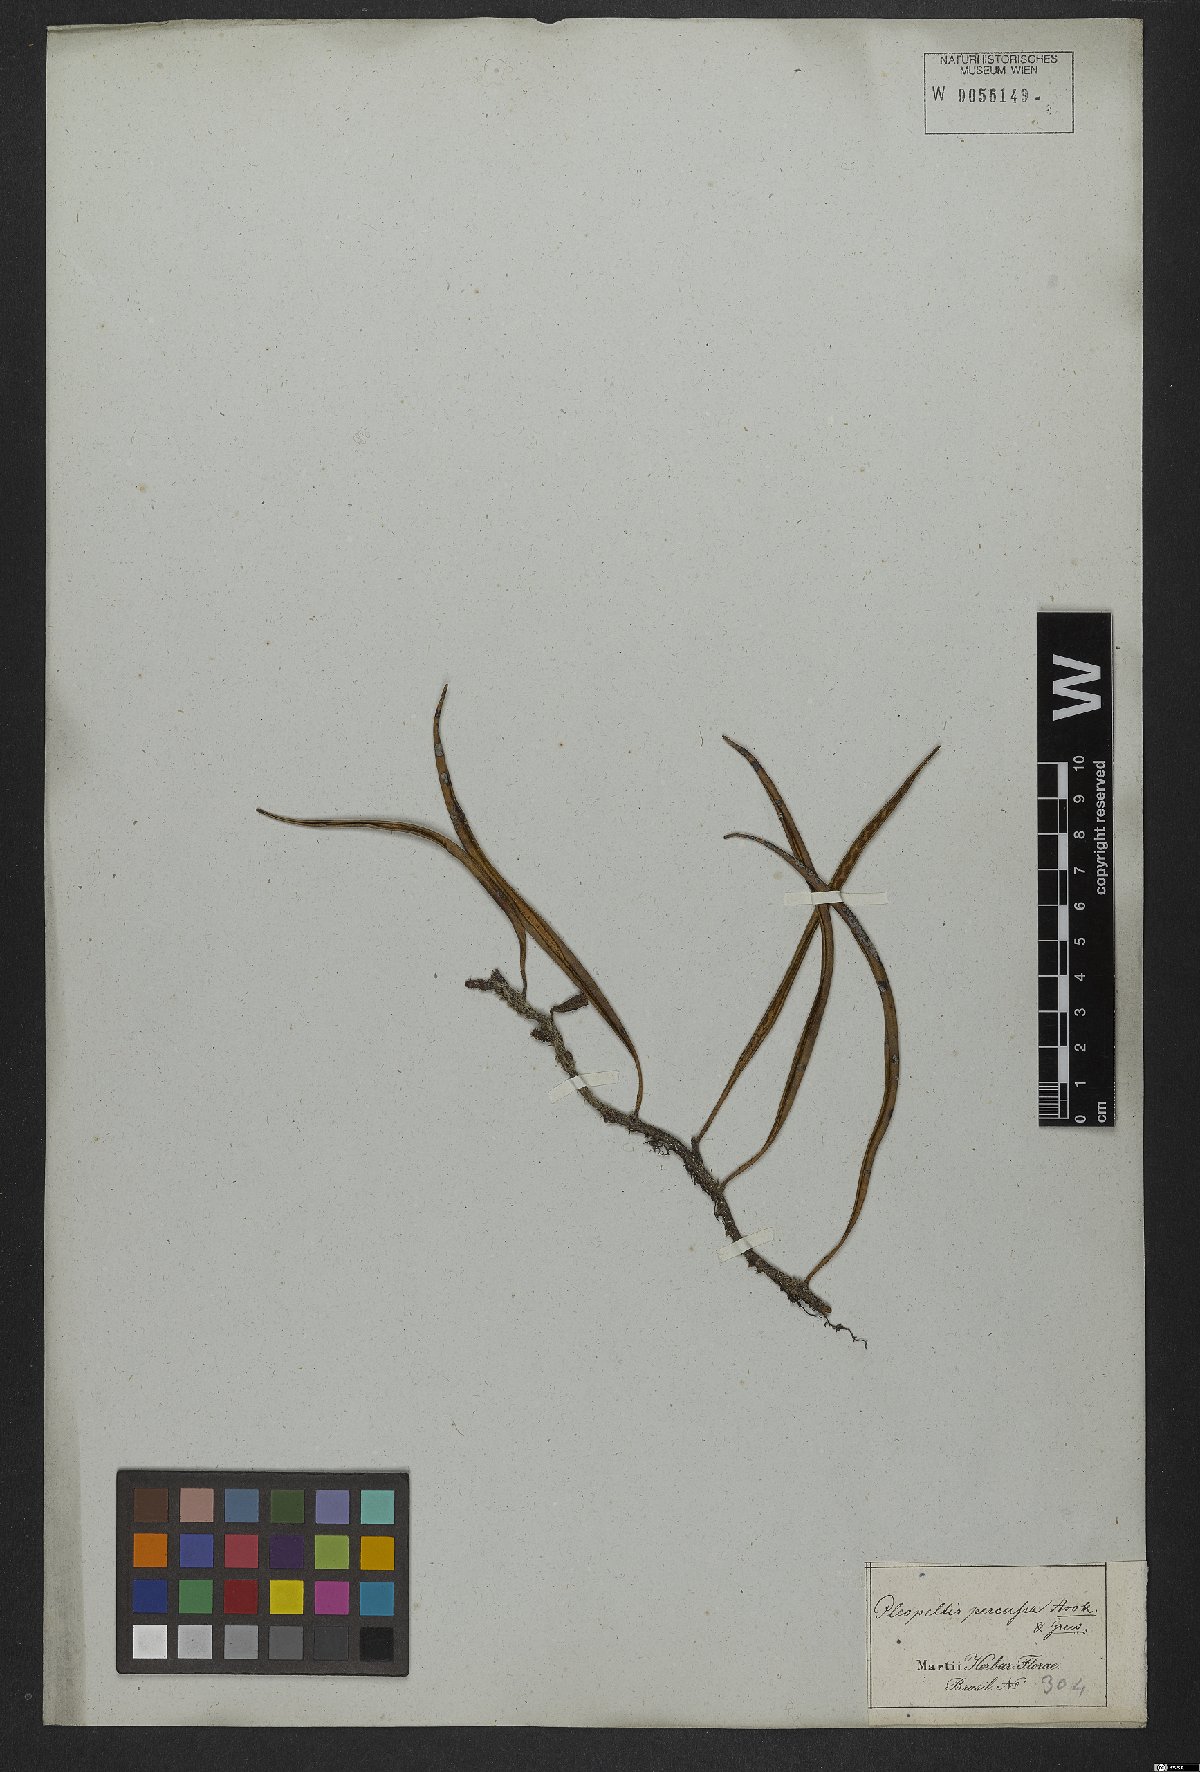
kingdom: Plantae
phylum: Tracheophyta
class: Polypodiopsida
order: Polypodiales
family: Polypodiaceae
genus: Microgramma
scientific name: Microgramma percussa
